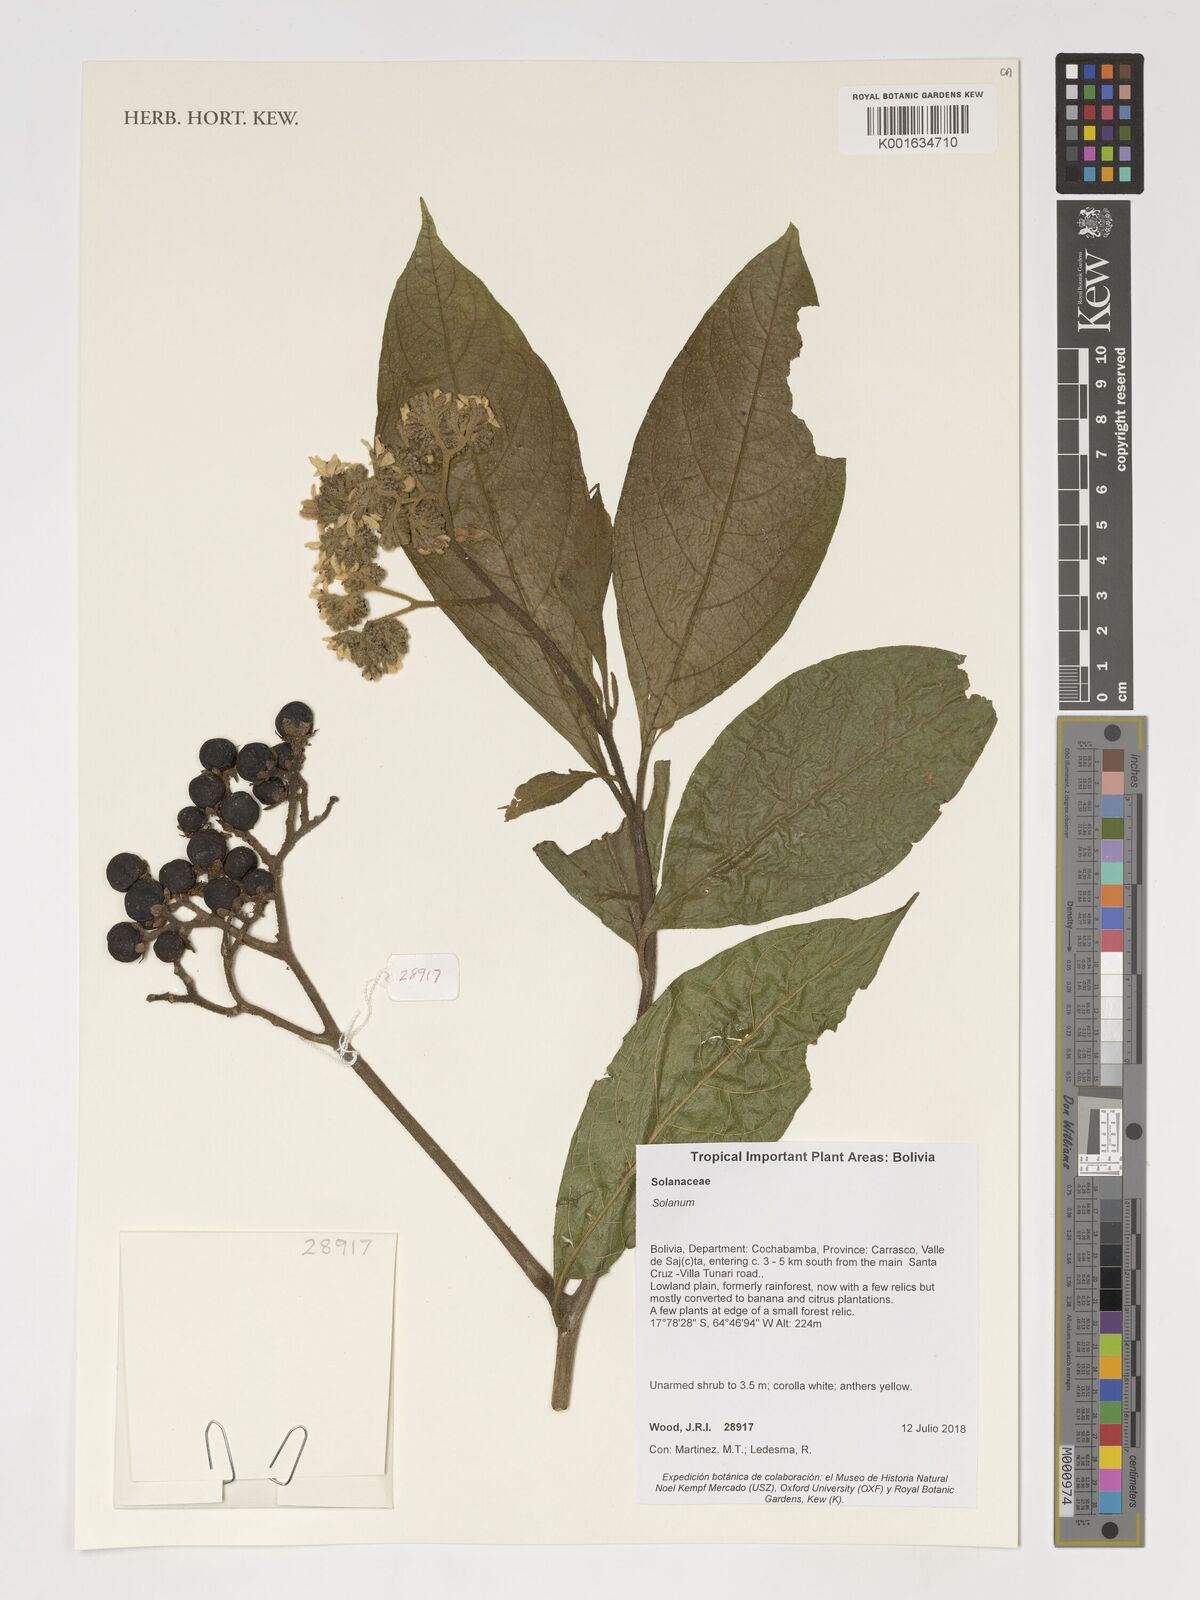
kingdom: Plantae
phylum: Tracheophyta
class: Magnoliopsida
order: Solanales
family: Solanaceae
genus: Solanum
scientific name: Solanum
